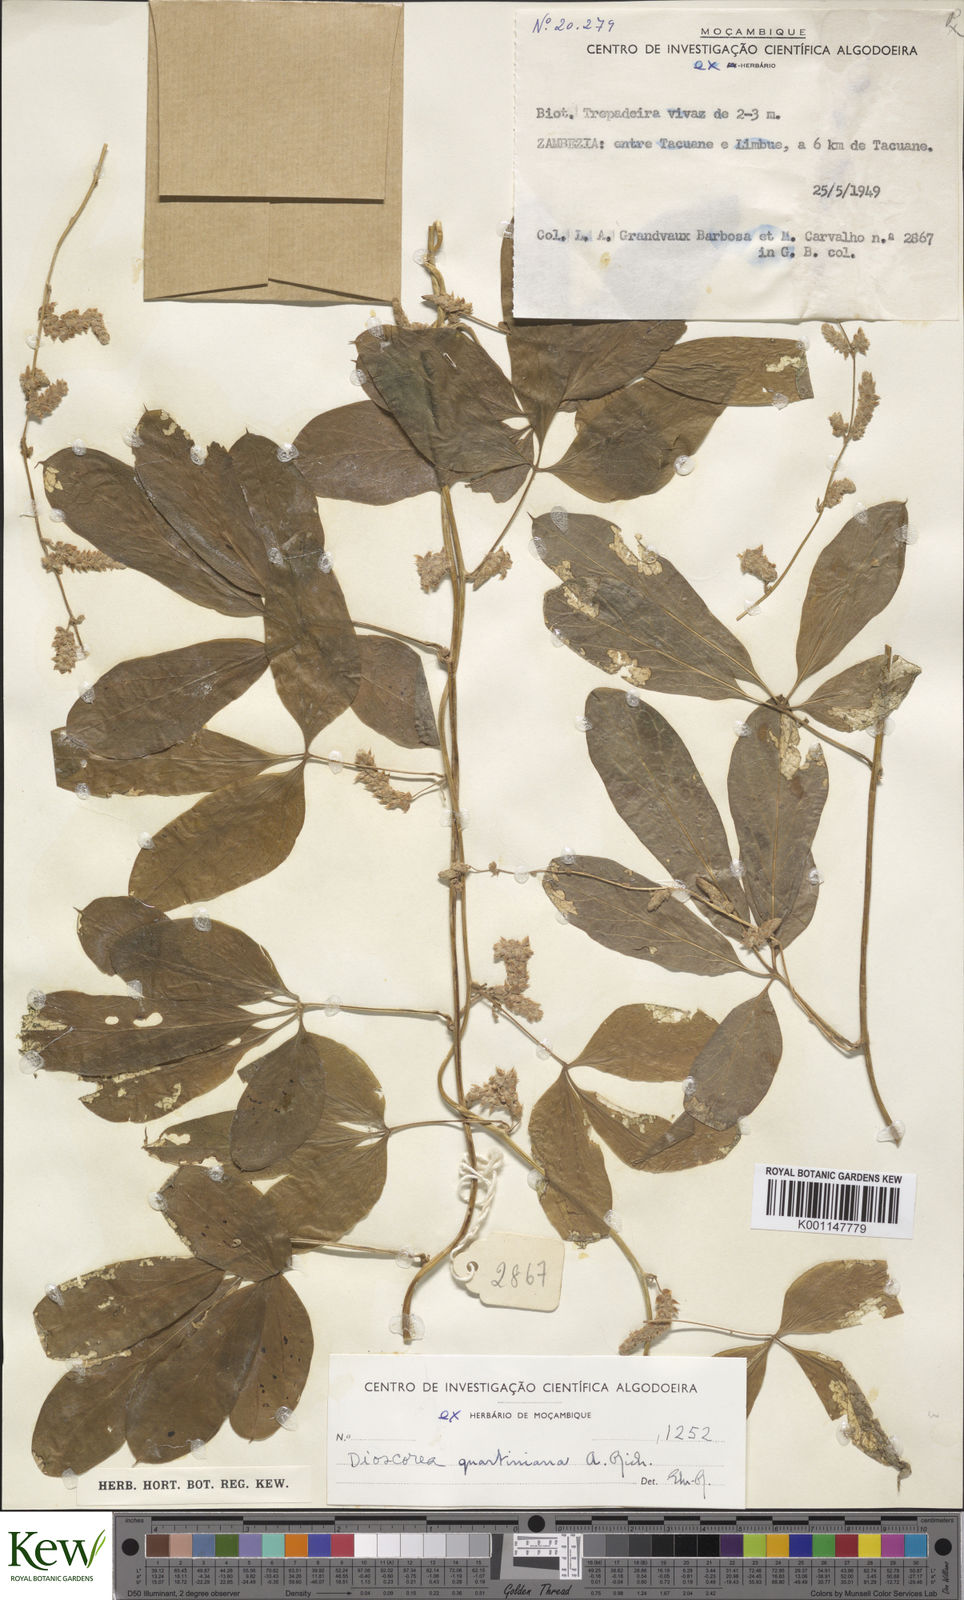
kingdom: Plantae
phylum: Tracheophyta
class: Liliopsida
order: Dioscoreales
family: Dioscoreaceae
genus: Dioscorea
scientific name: Dioscorea quartiniana
